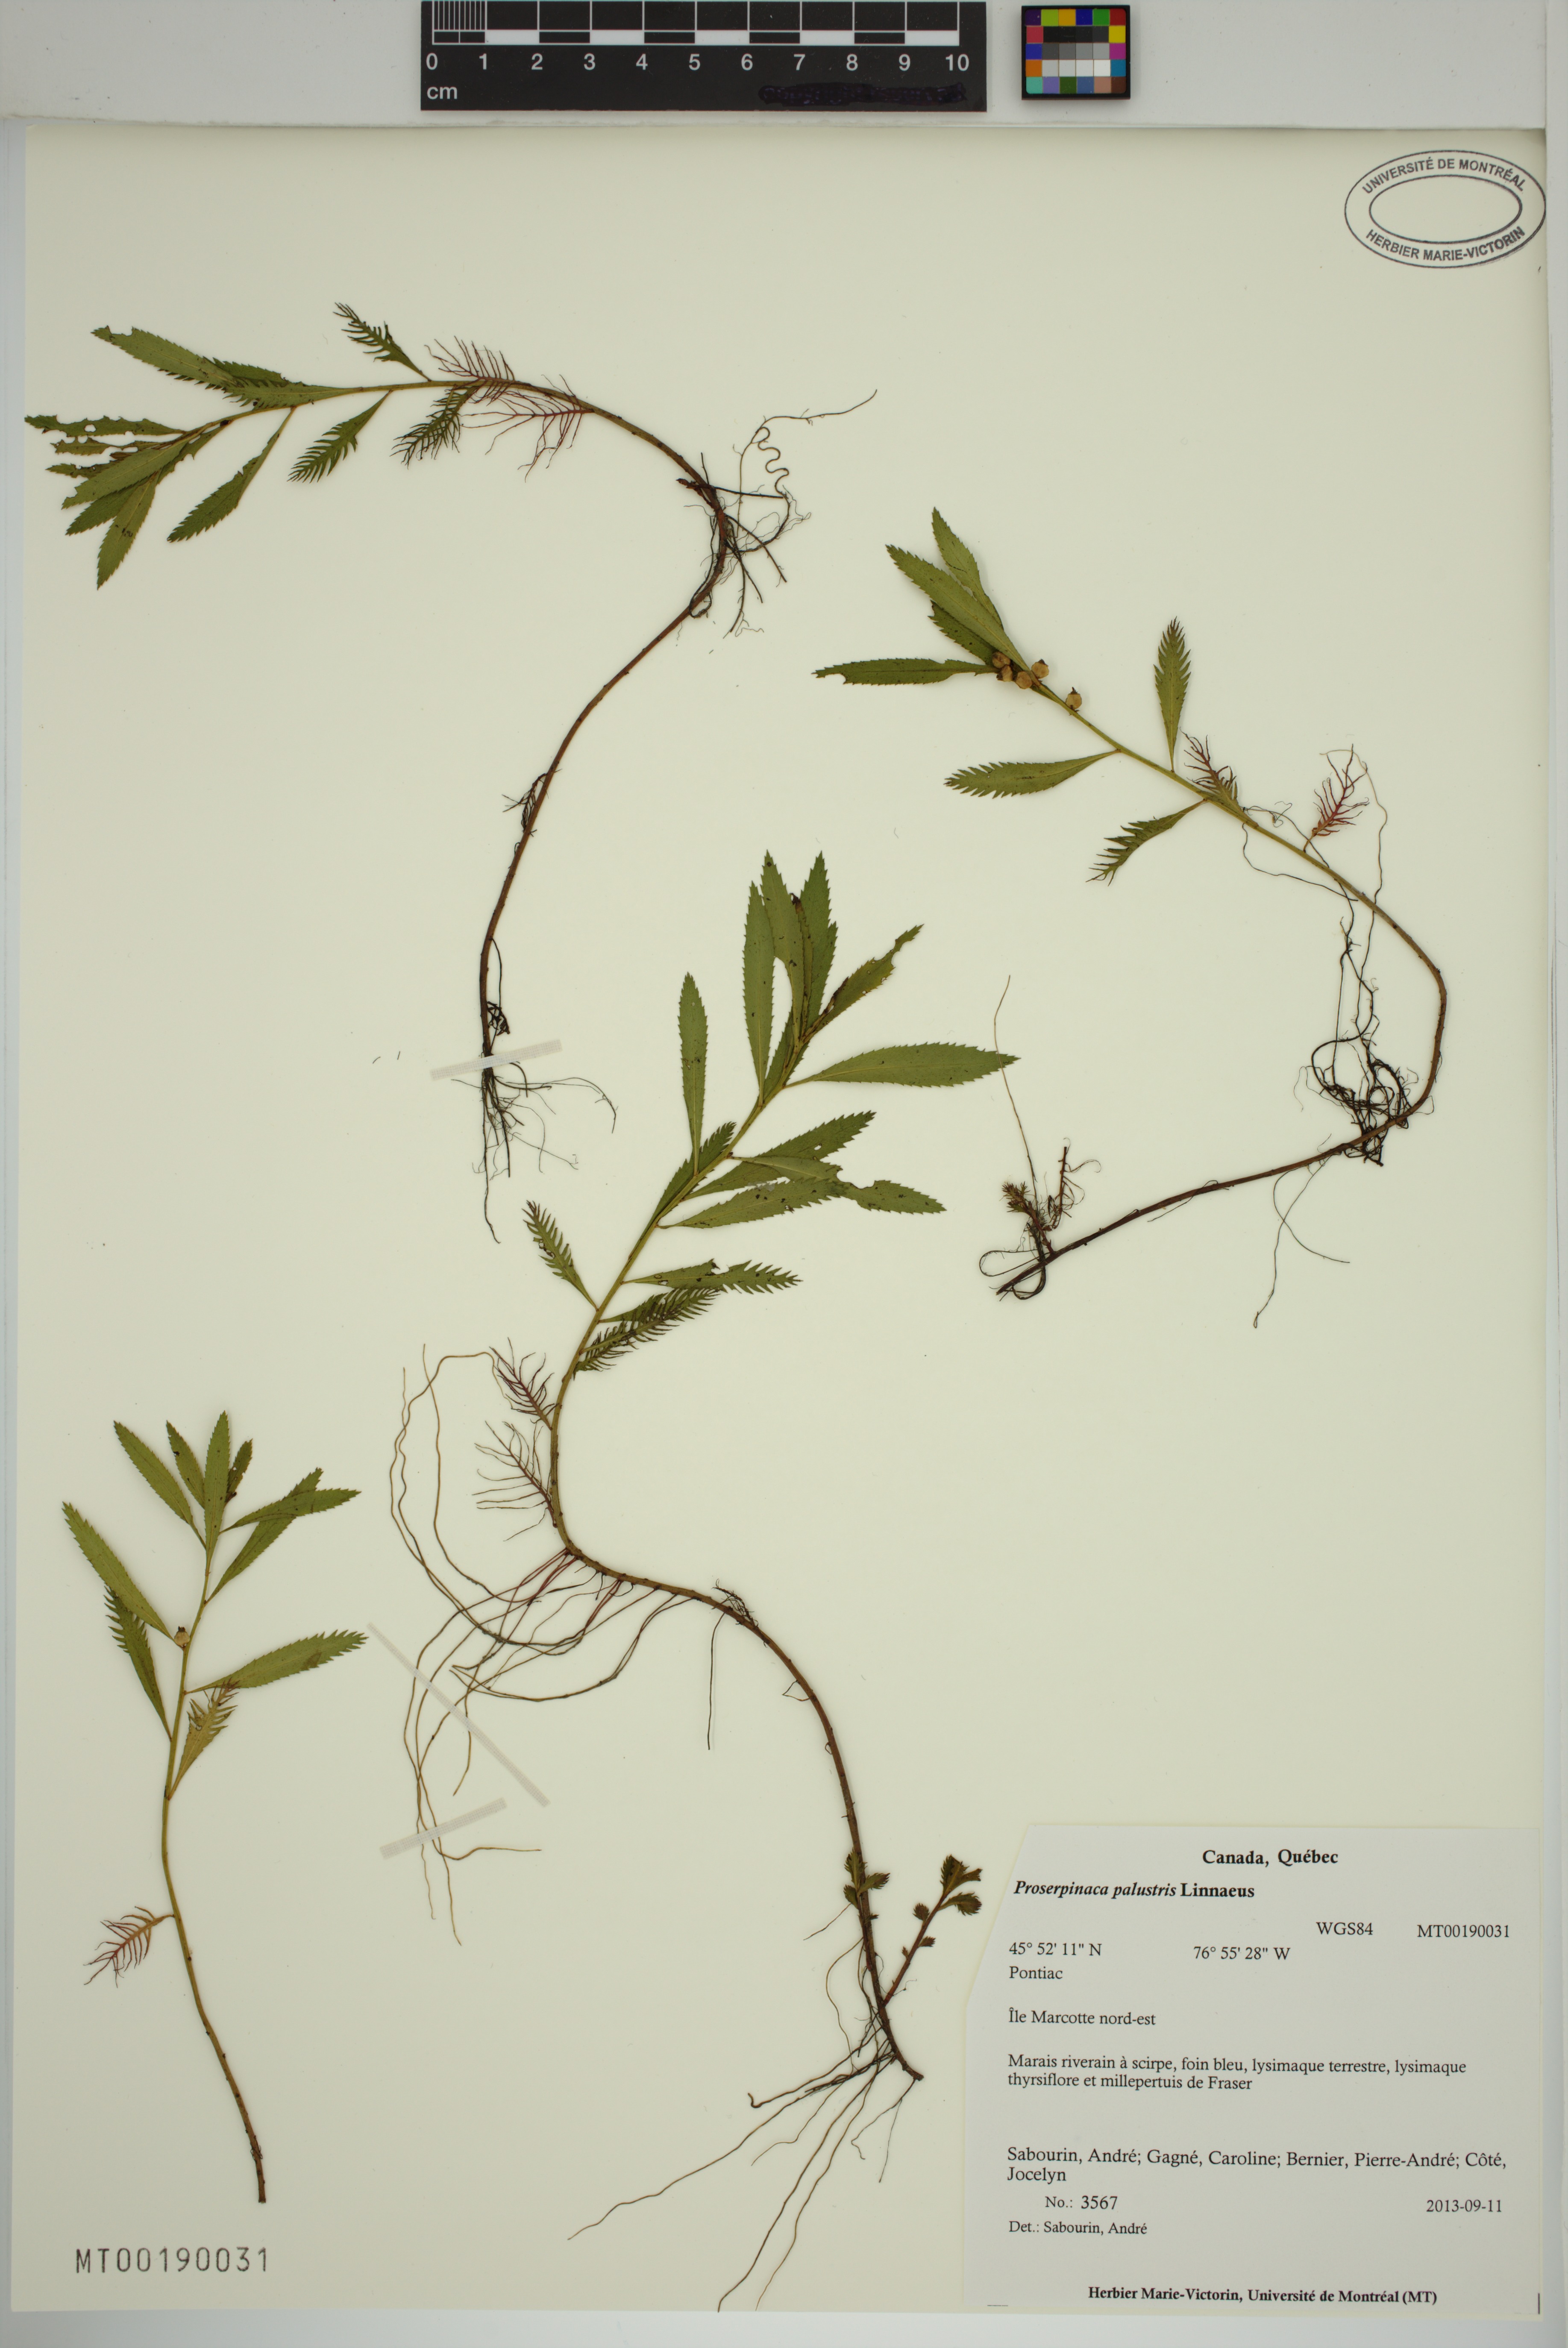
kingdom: Plantae
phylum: Tracheophyta
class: Magnoliopsida
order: Saxifragales
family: Haloragaceae
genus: Proserpinaca
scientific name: Proserpinaca palustris
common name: Marsh mermaidweed
